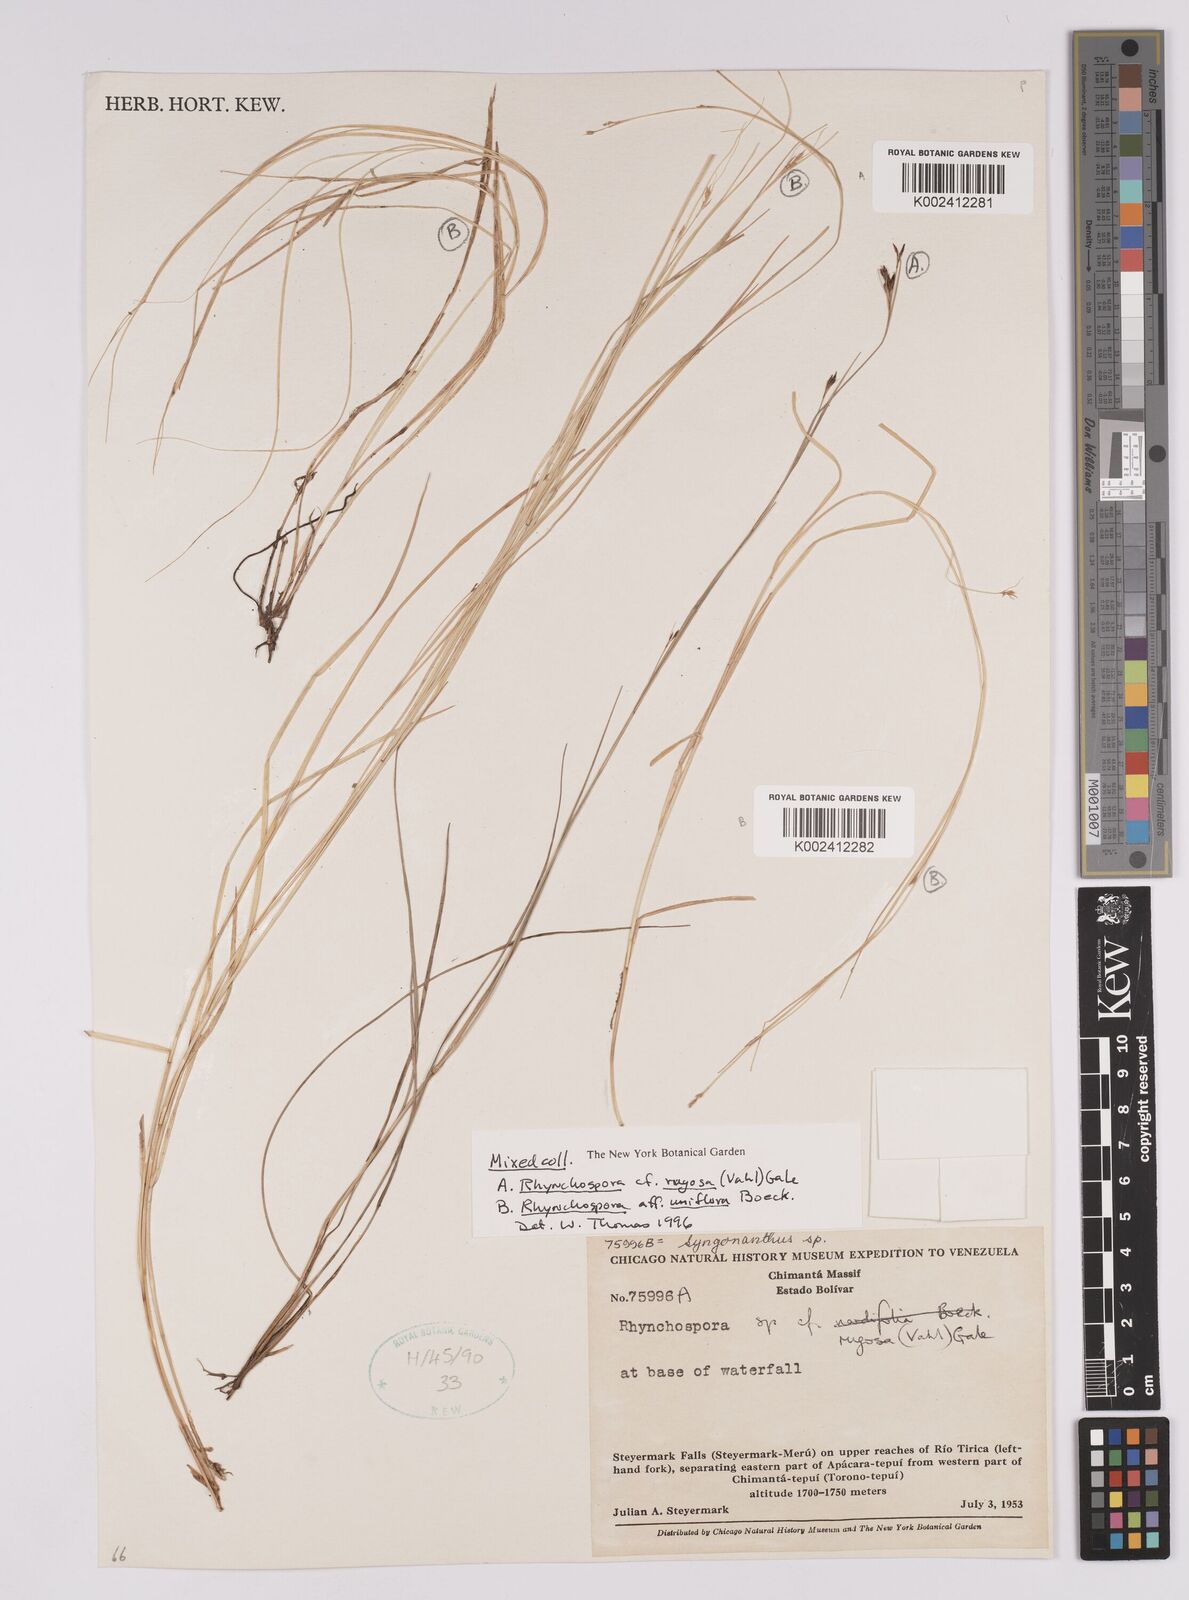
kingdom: Plantae
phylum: Tracheophyta
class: Liliopsida
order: Poales
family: Cyperaceae
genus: Rhynchospora
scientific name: Rhynchospora biflora
